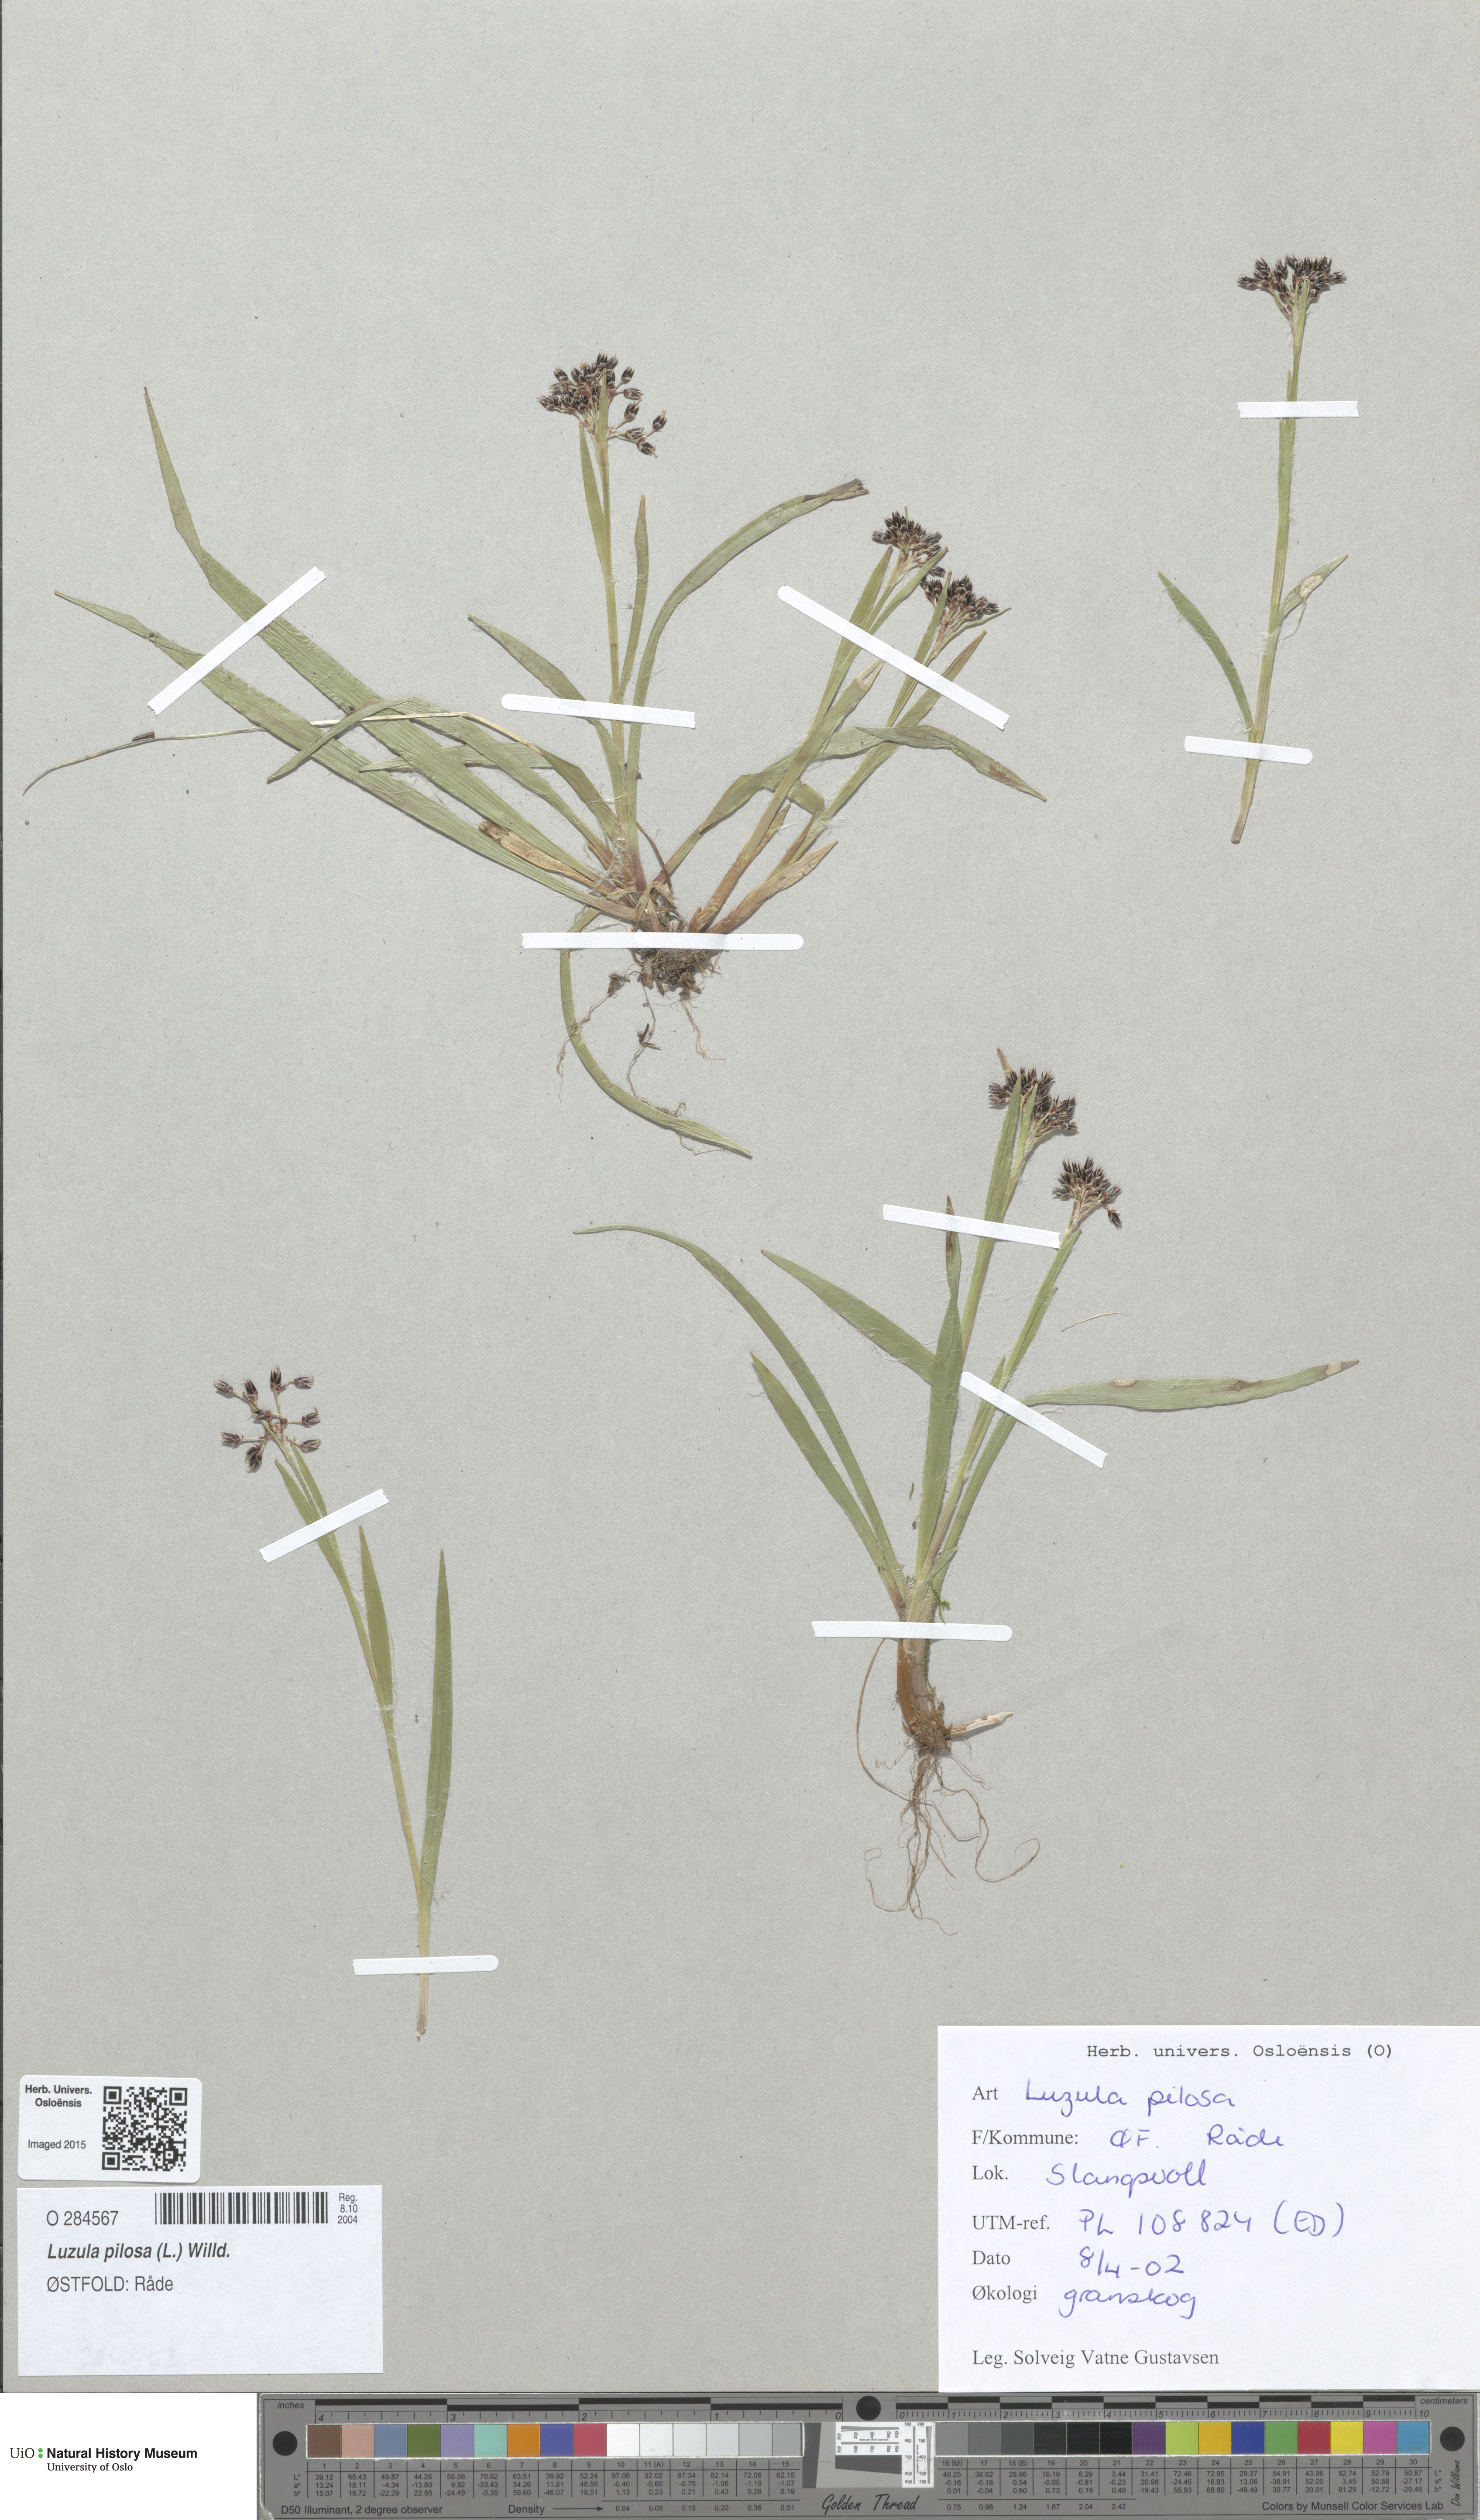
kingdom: Plantae
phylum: Tracheophyta
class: Liliopsida
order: Poales
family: Juncaceae
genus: Luzula
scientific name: Luzula pilosa
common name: Hairy wood-rush
